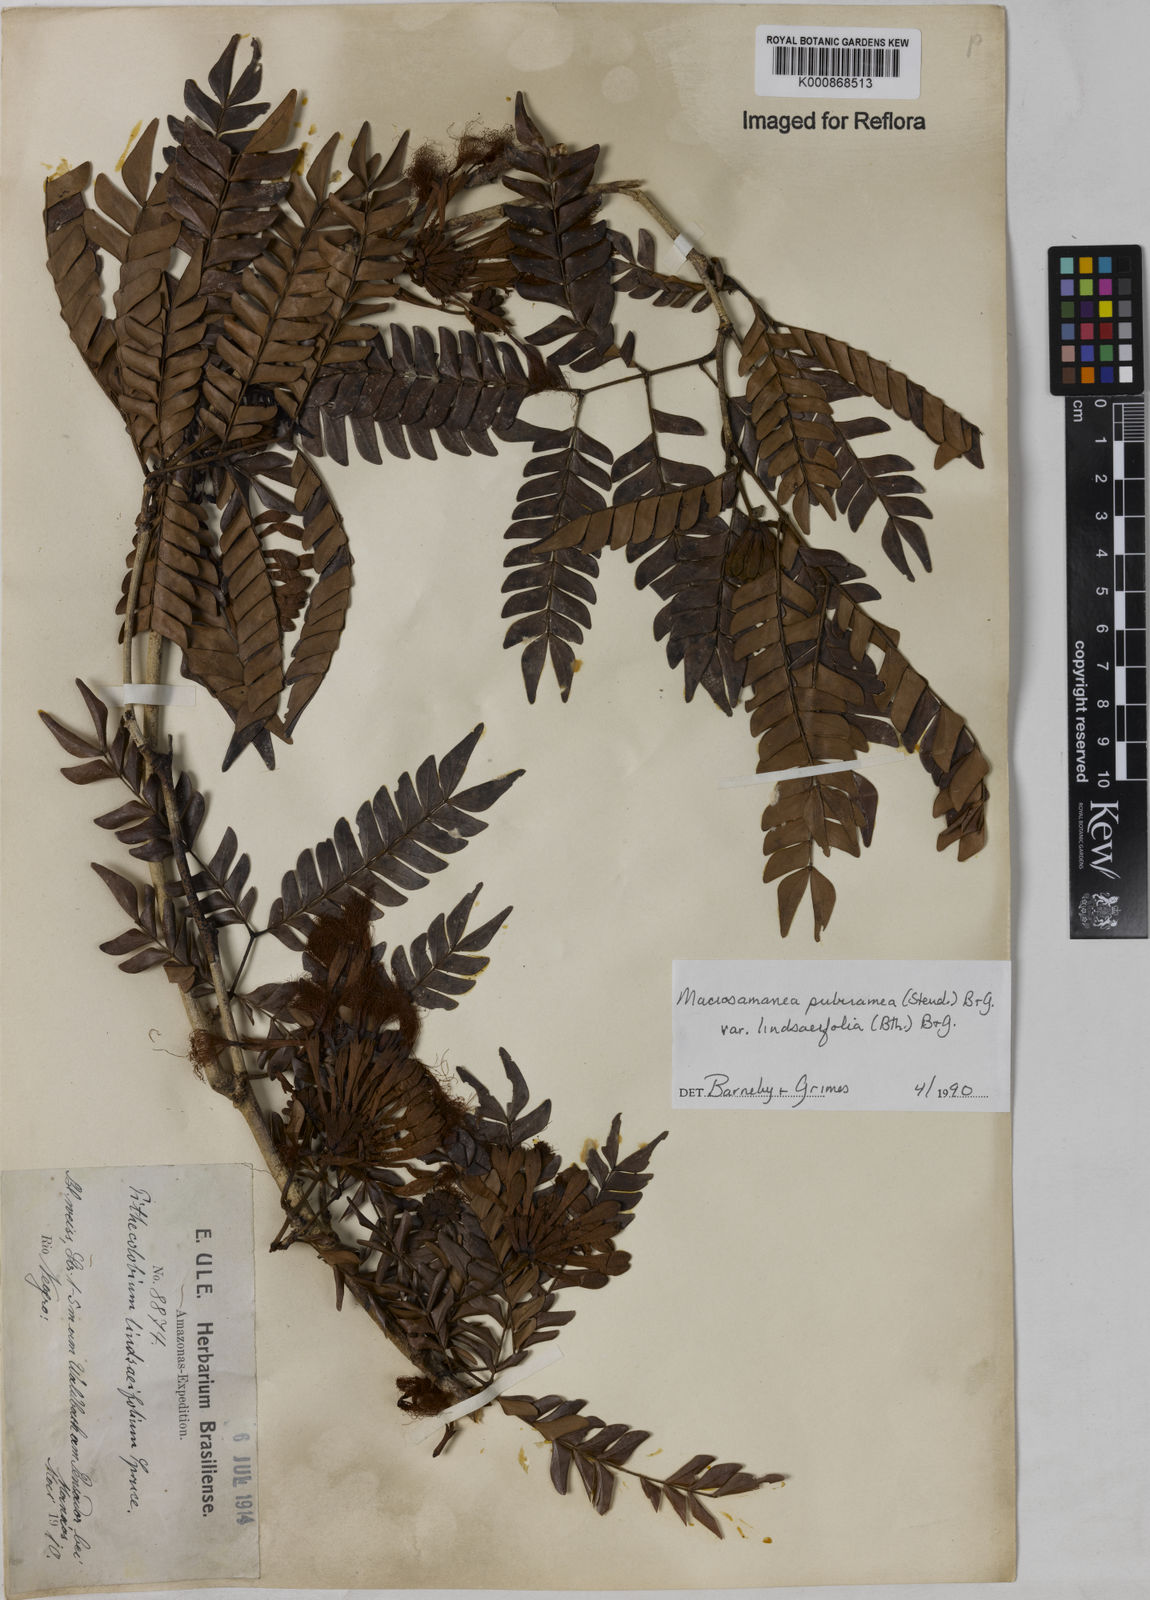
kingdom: Plantae
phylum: Tracheophyta
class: Magnoliopsida
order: Fabales
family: Fabaceae
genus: Macrosamanea
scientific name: Macrosamanea pubiramea
